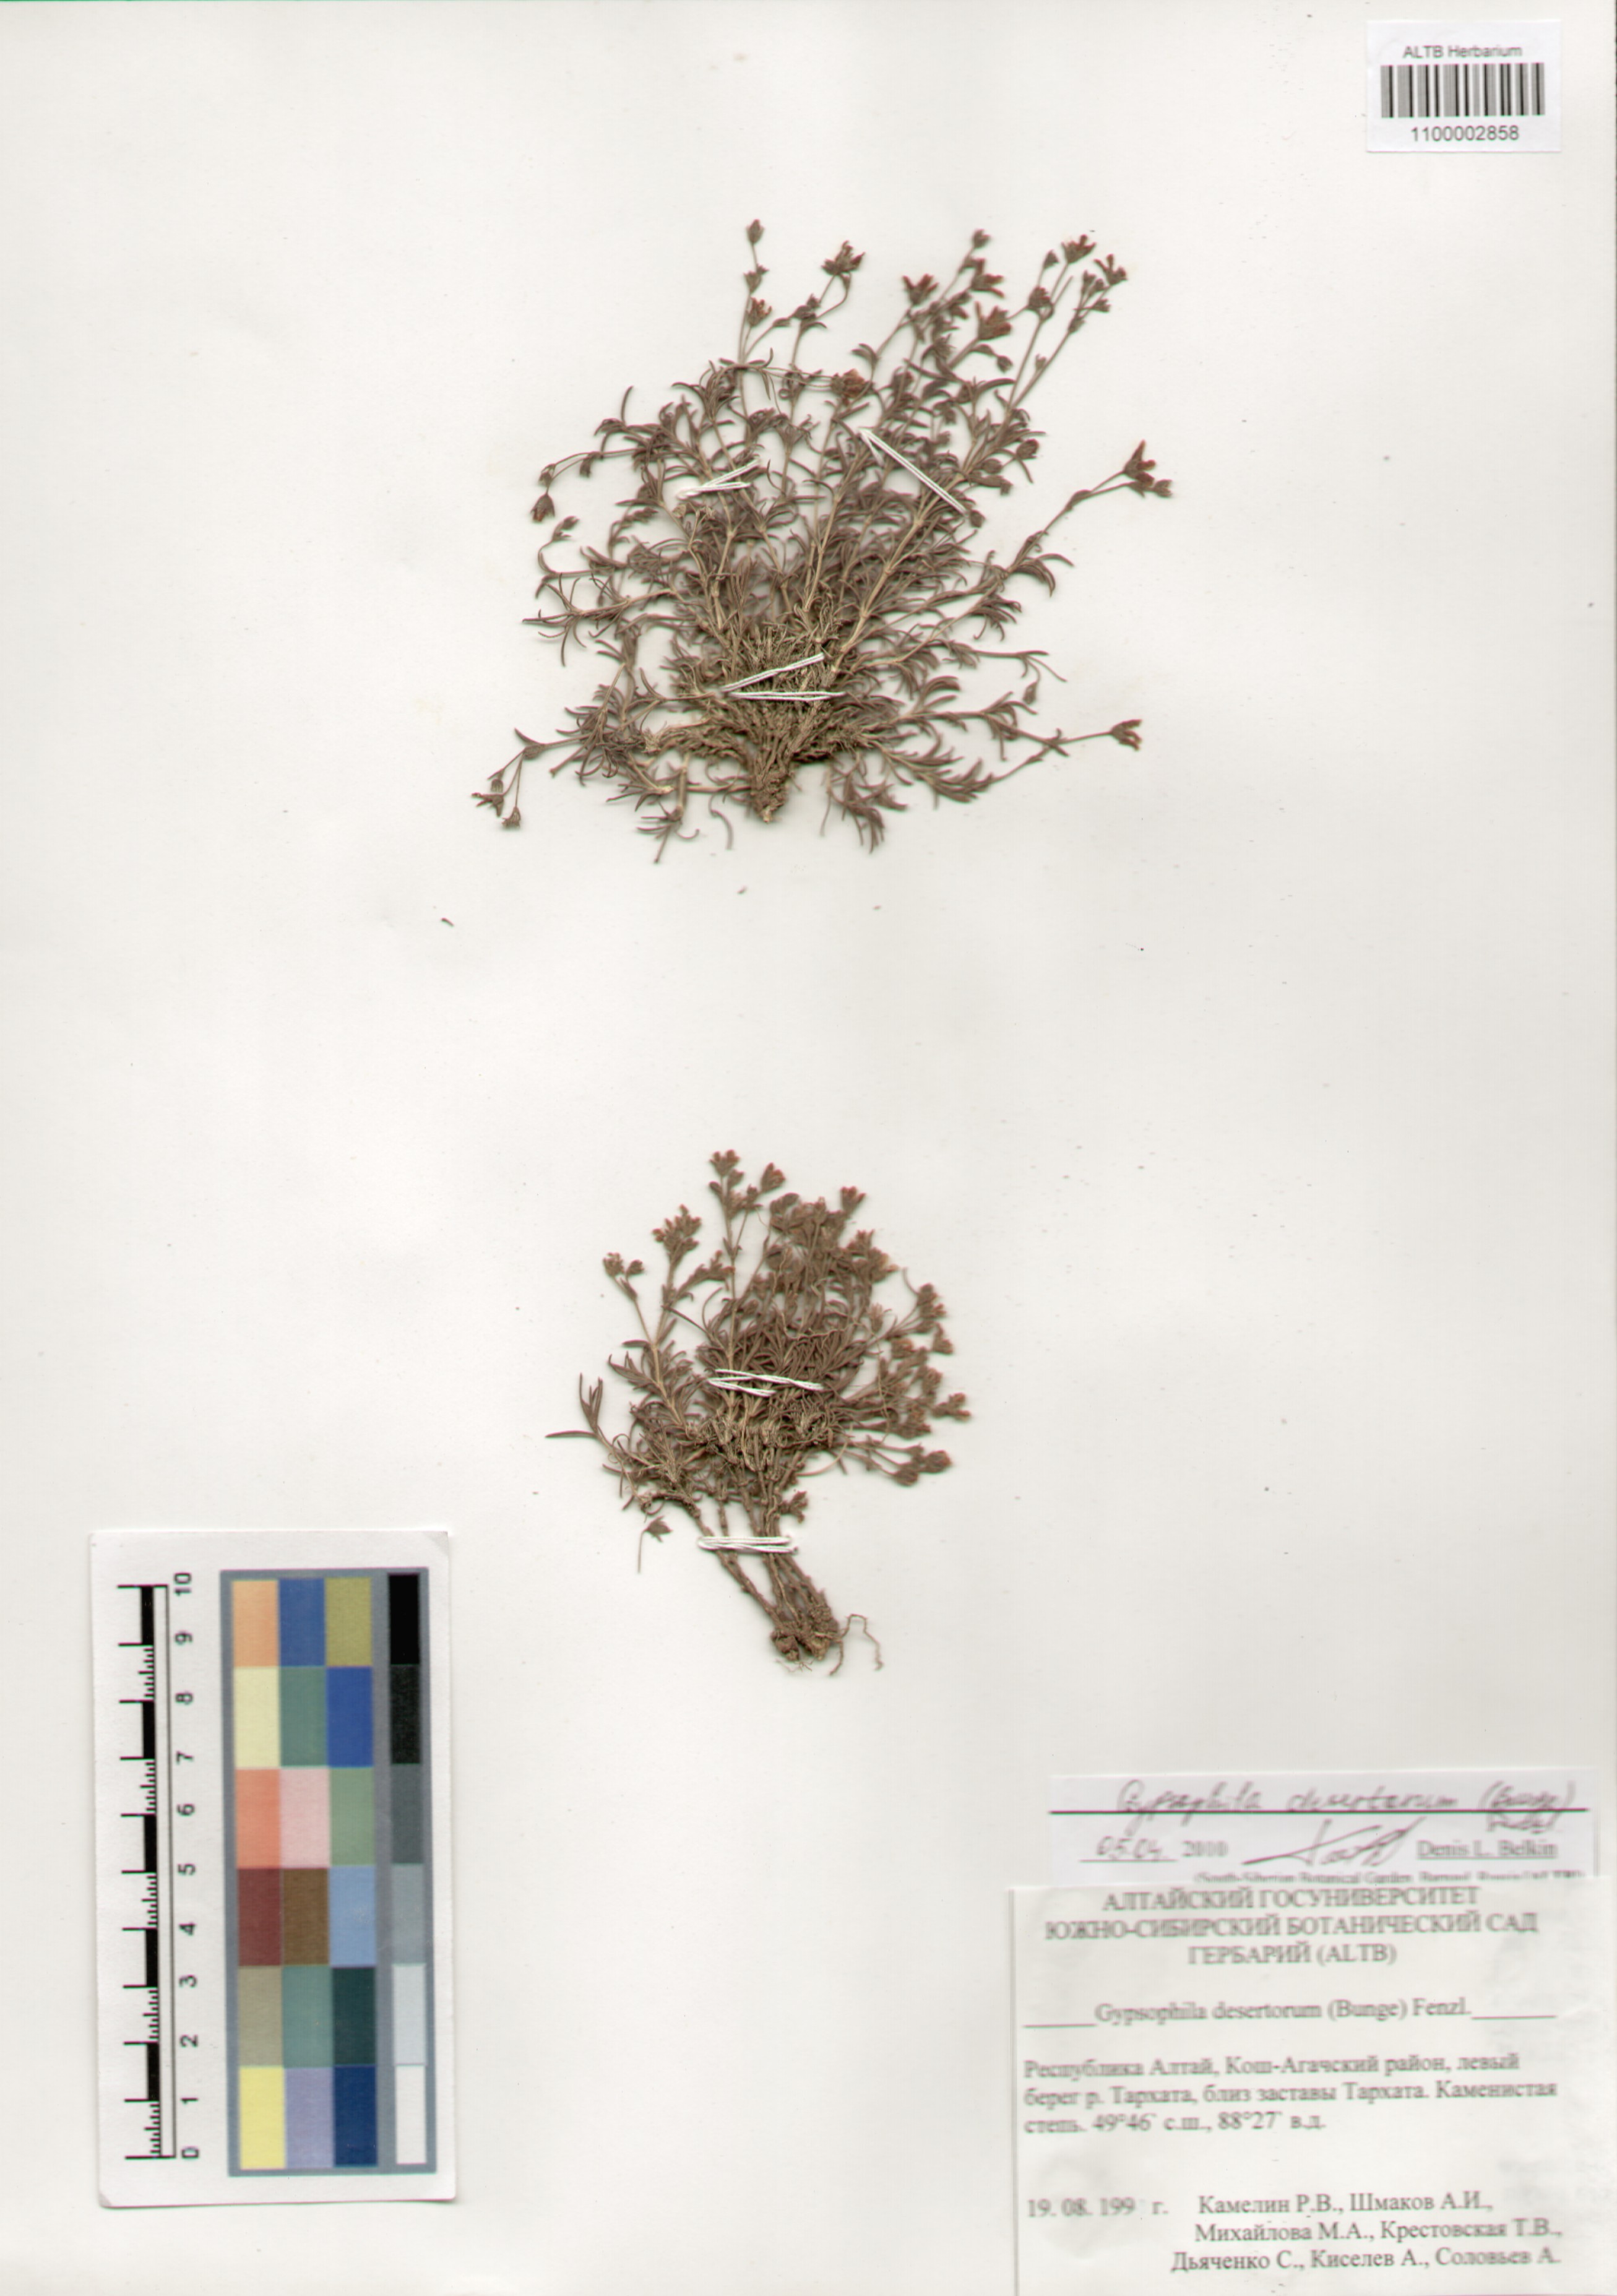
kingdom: Plantae
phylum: Tracheophyta
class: Magnoliopsida
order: Caryophyllales
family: Caryophyllaceae
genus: Heterochroa
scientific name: Heterochroa desertorum
